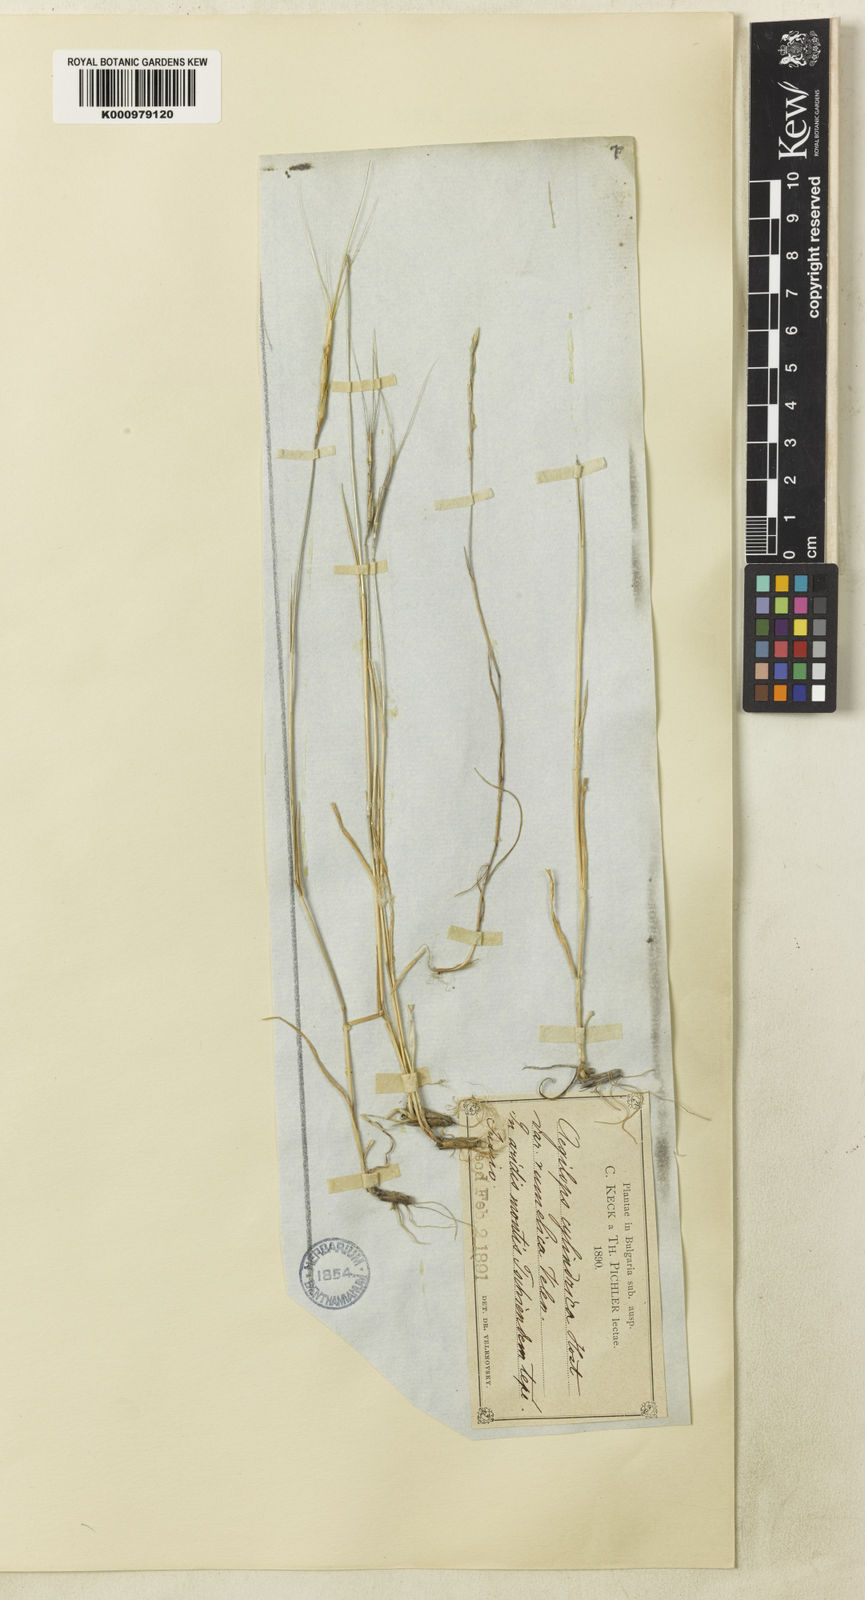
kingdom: Plantae
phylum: Tracheophyta
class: Liliopsida
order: Poales
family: Poaceae
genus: Aegilops
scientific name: Aegilops cylindrica
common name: Jointed goatgrass
